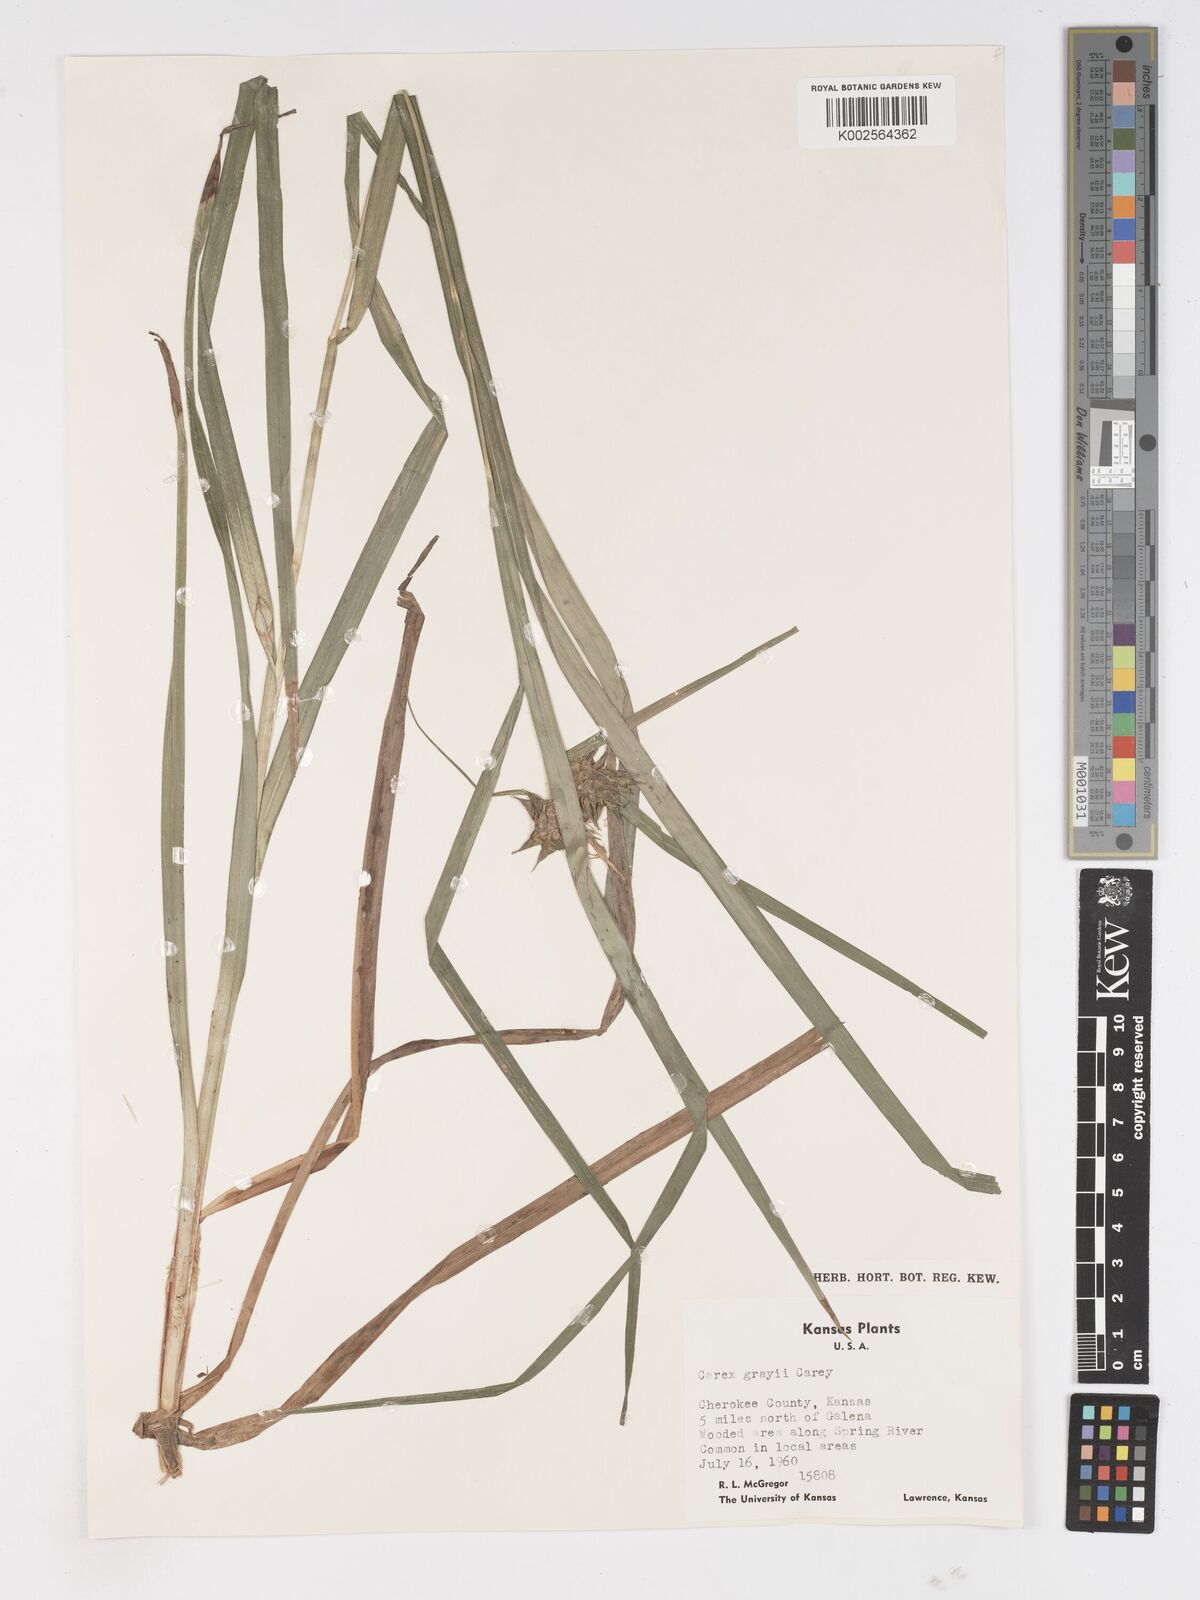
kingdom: Plantae
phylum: Tracheophyta
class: Liliopsida
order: Poales
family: Cyperaceae
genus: Carex
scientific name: Carex grayi
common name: Asa gray's sedge
